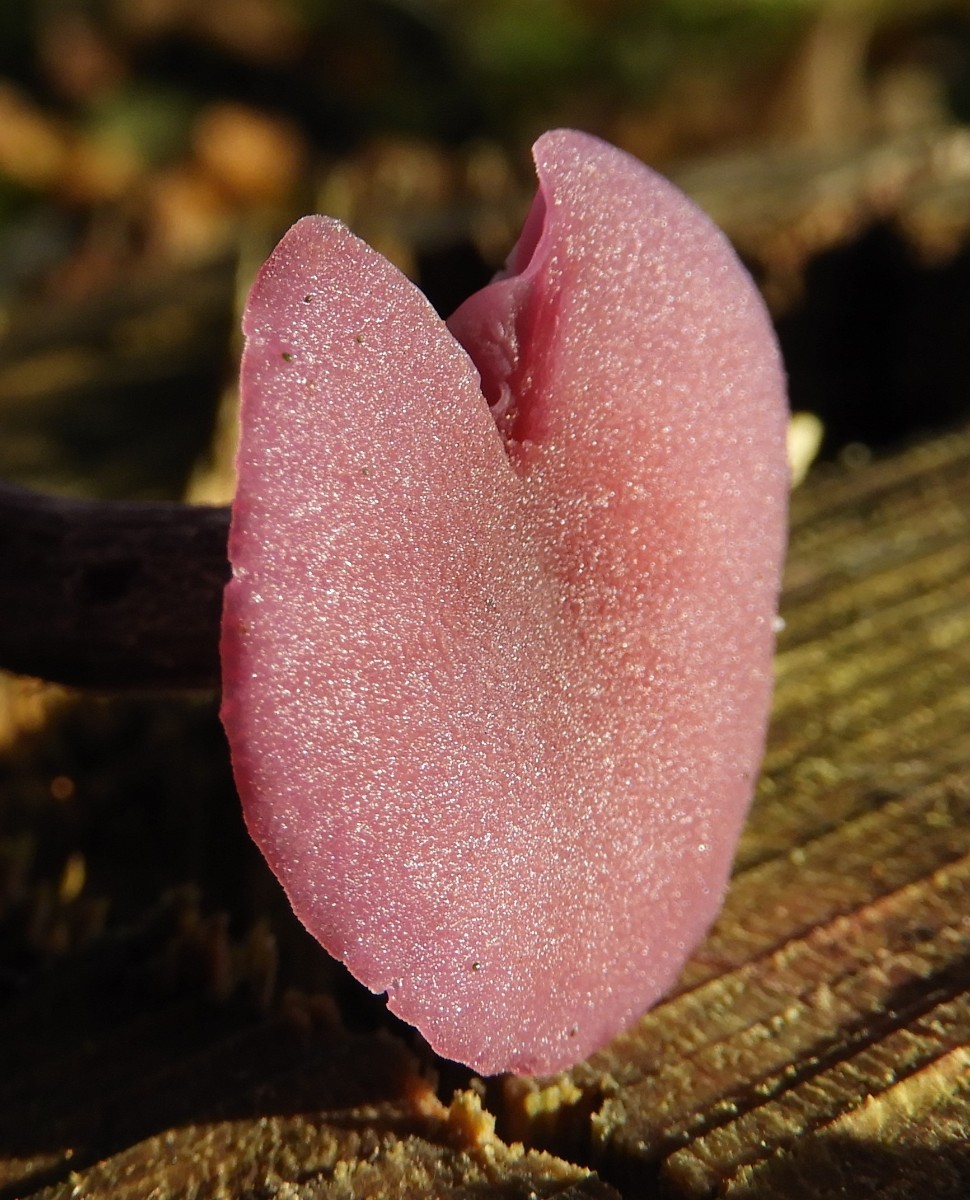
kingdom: Fungi
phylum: Basidiomycota
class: Agaricomycetes
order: Agaricales
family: Hydnangiaceae
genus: Laccaria
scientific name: Laccaria amethystina
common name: violet ametysthat
